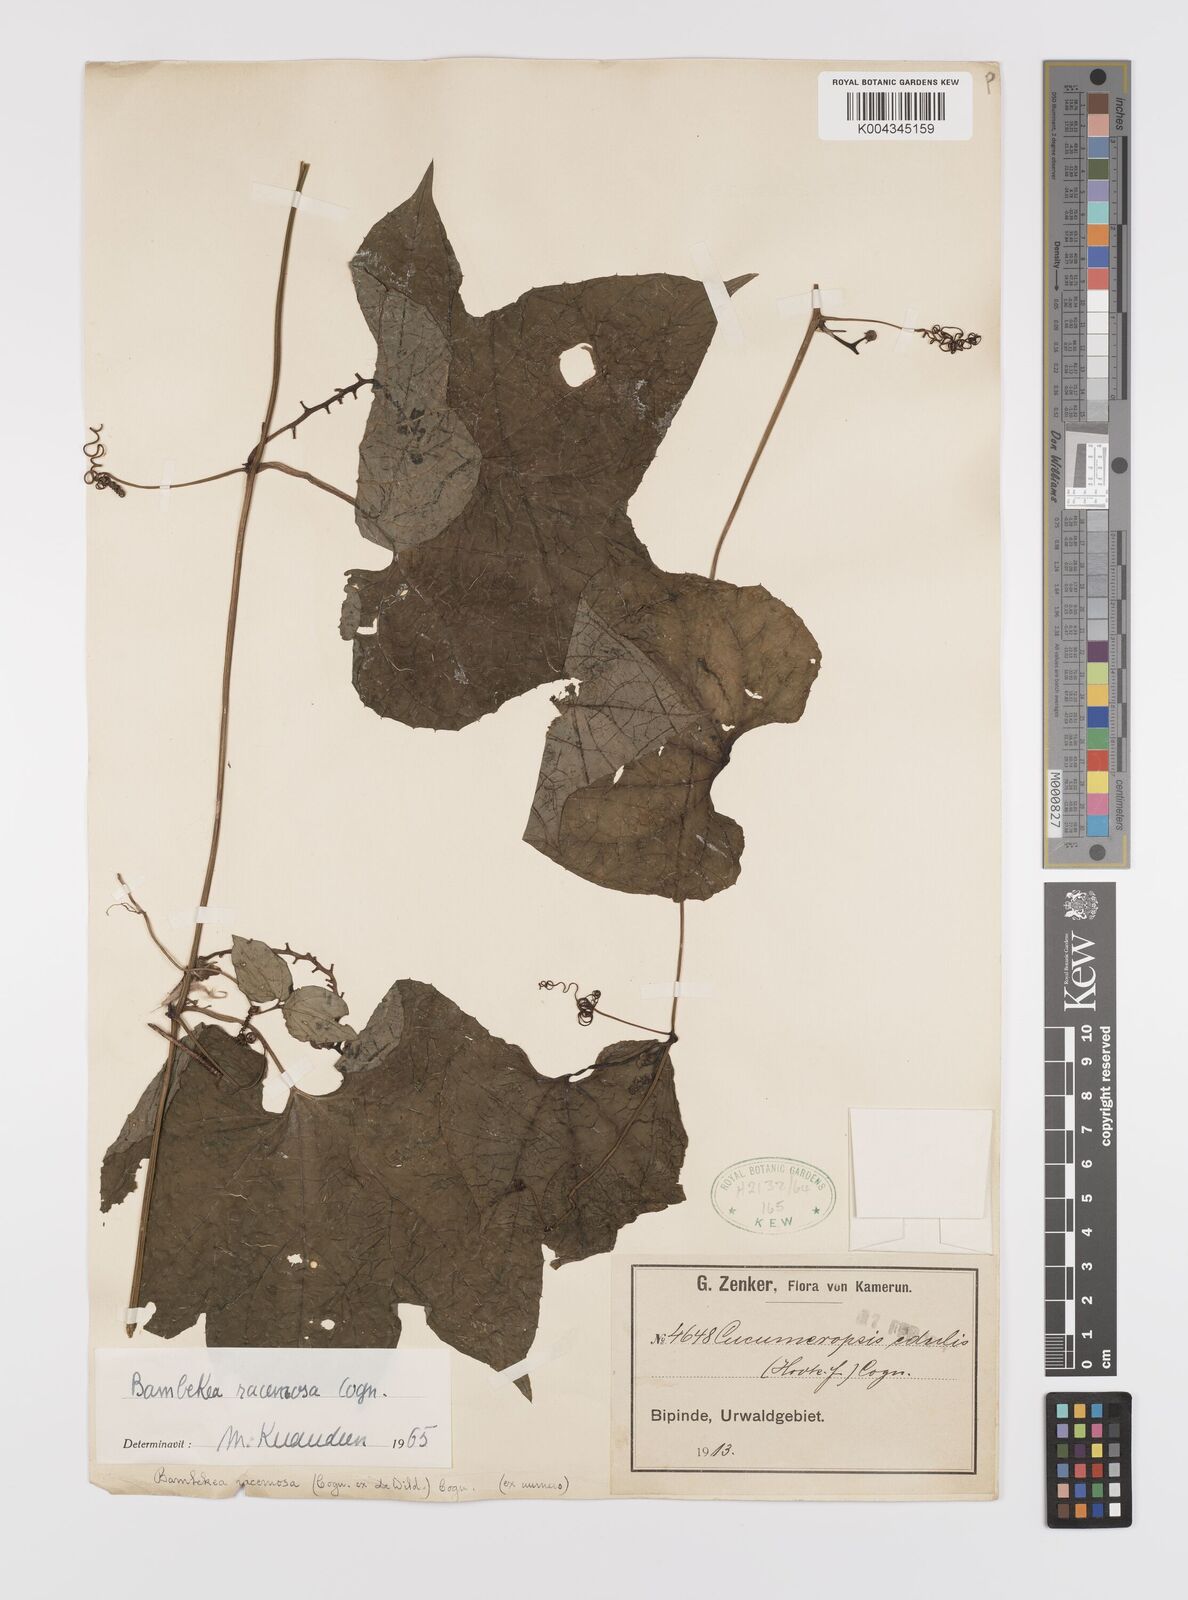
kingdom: Plantae
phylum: Tracheophyta
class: Magnoliopsida
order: Cucurbitales
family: Cucurbitaceae
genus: Bambekea
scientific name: Bambekea racemosa
